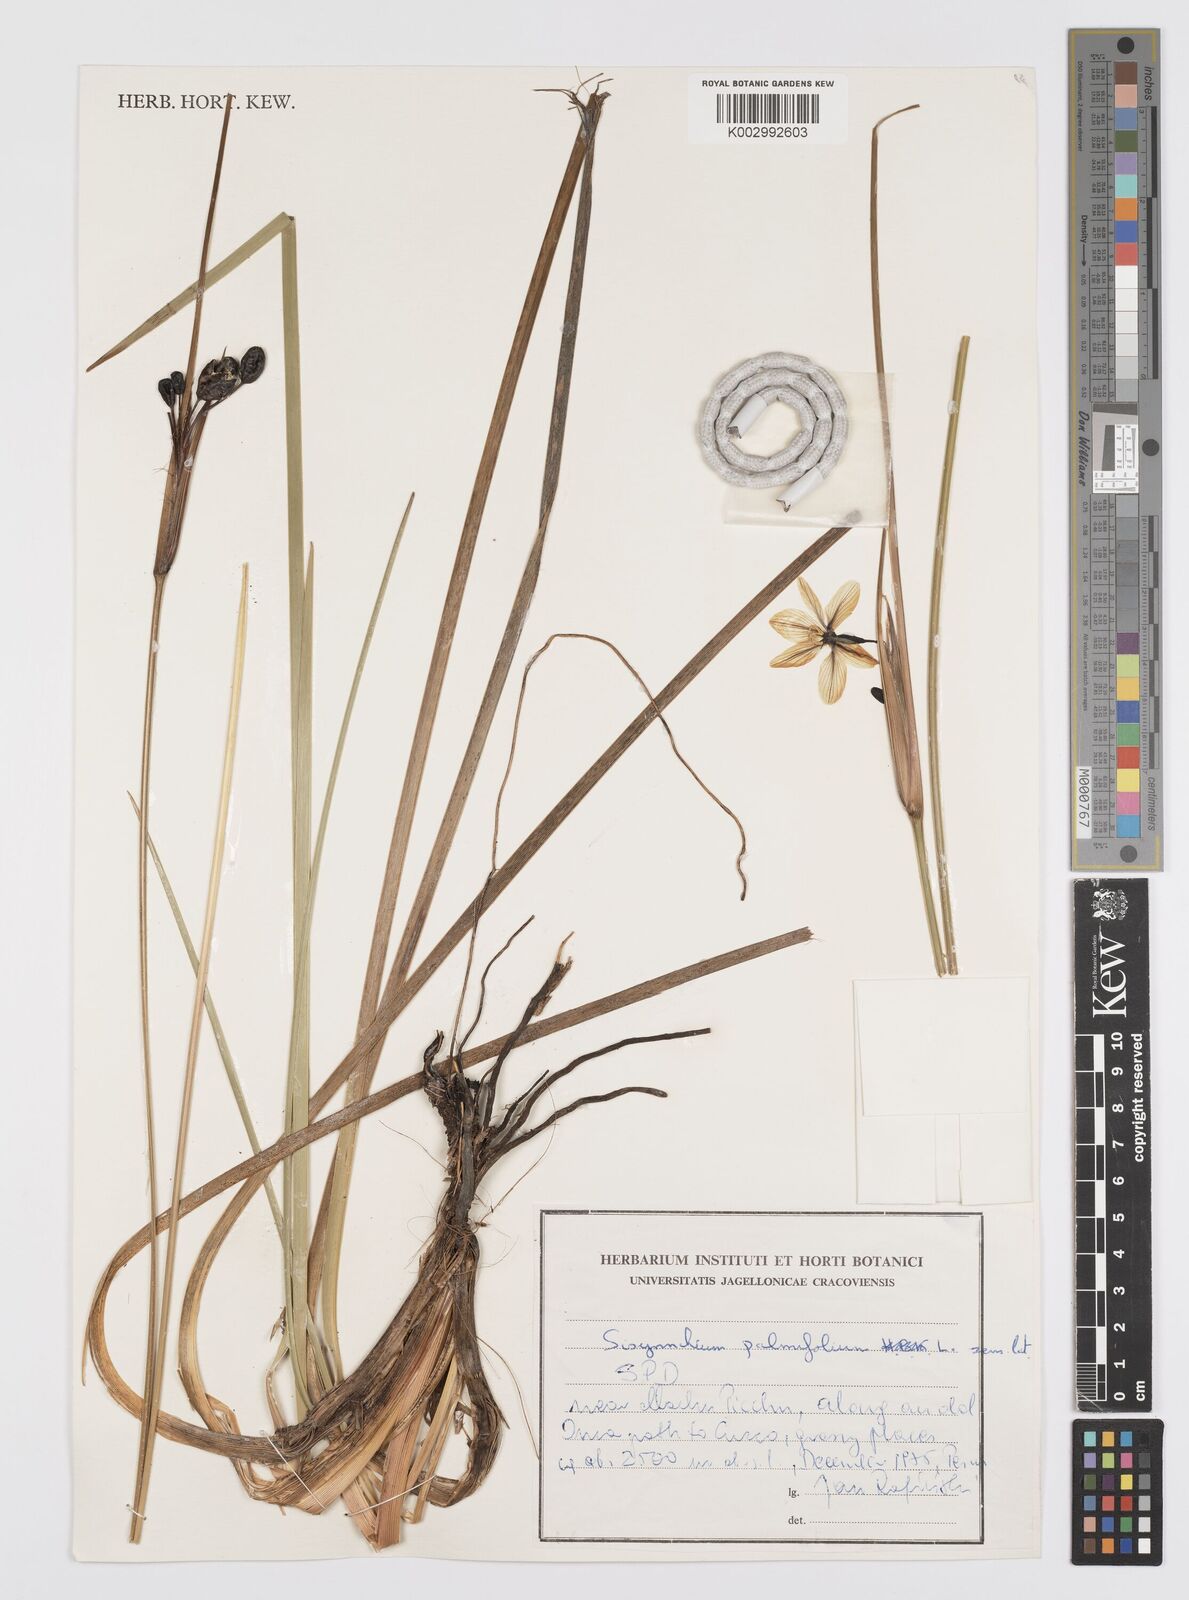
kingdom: Plantae
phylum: Tracheophyta
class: Liliopsida
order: Asparagales
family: Iridaceae
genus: Sisyrinchium
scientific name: Sisyrinchium palmifolium
